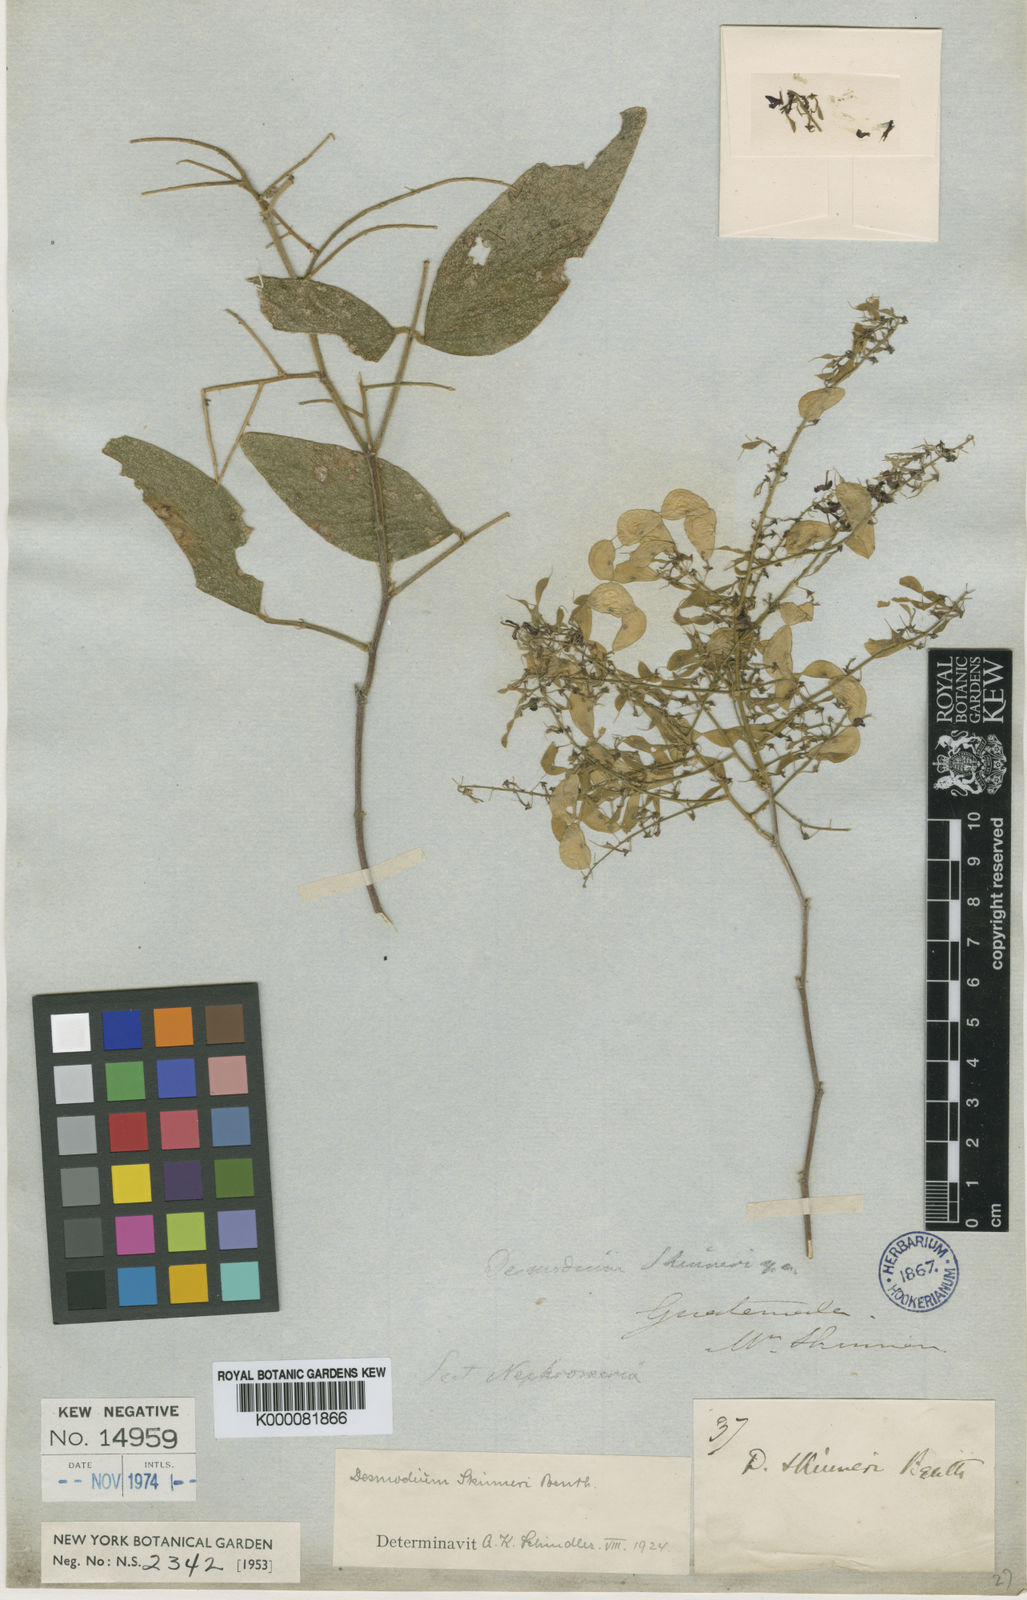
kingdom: Plantae
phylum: Tracheophyta
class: Magnoliopsida
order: Fabales
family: Fabaceae
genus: Desmodium
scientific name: Desmodium
